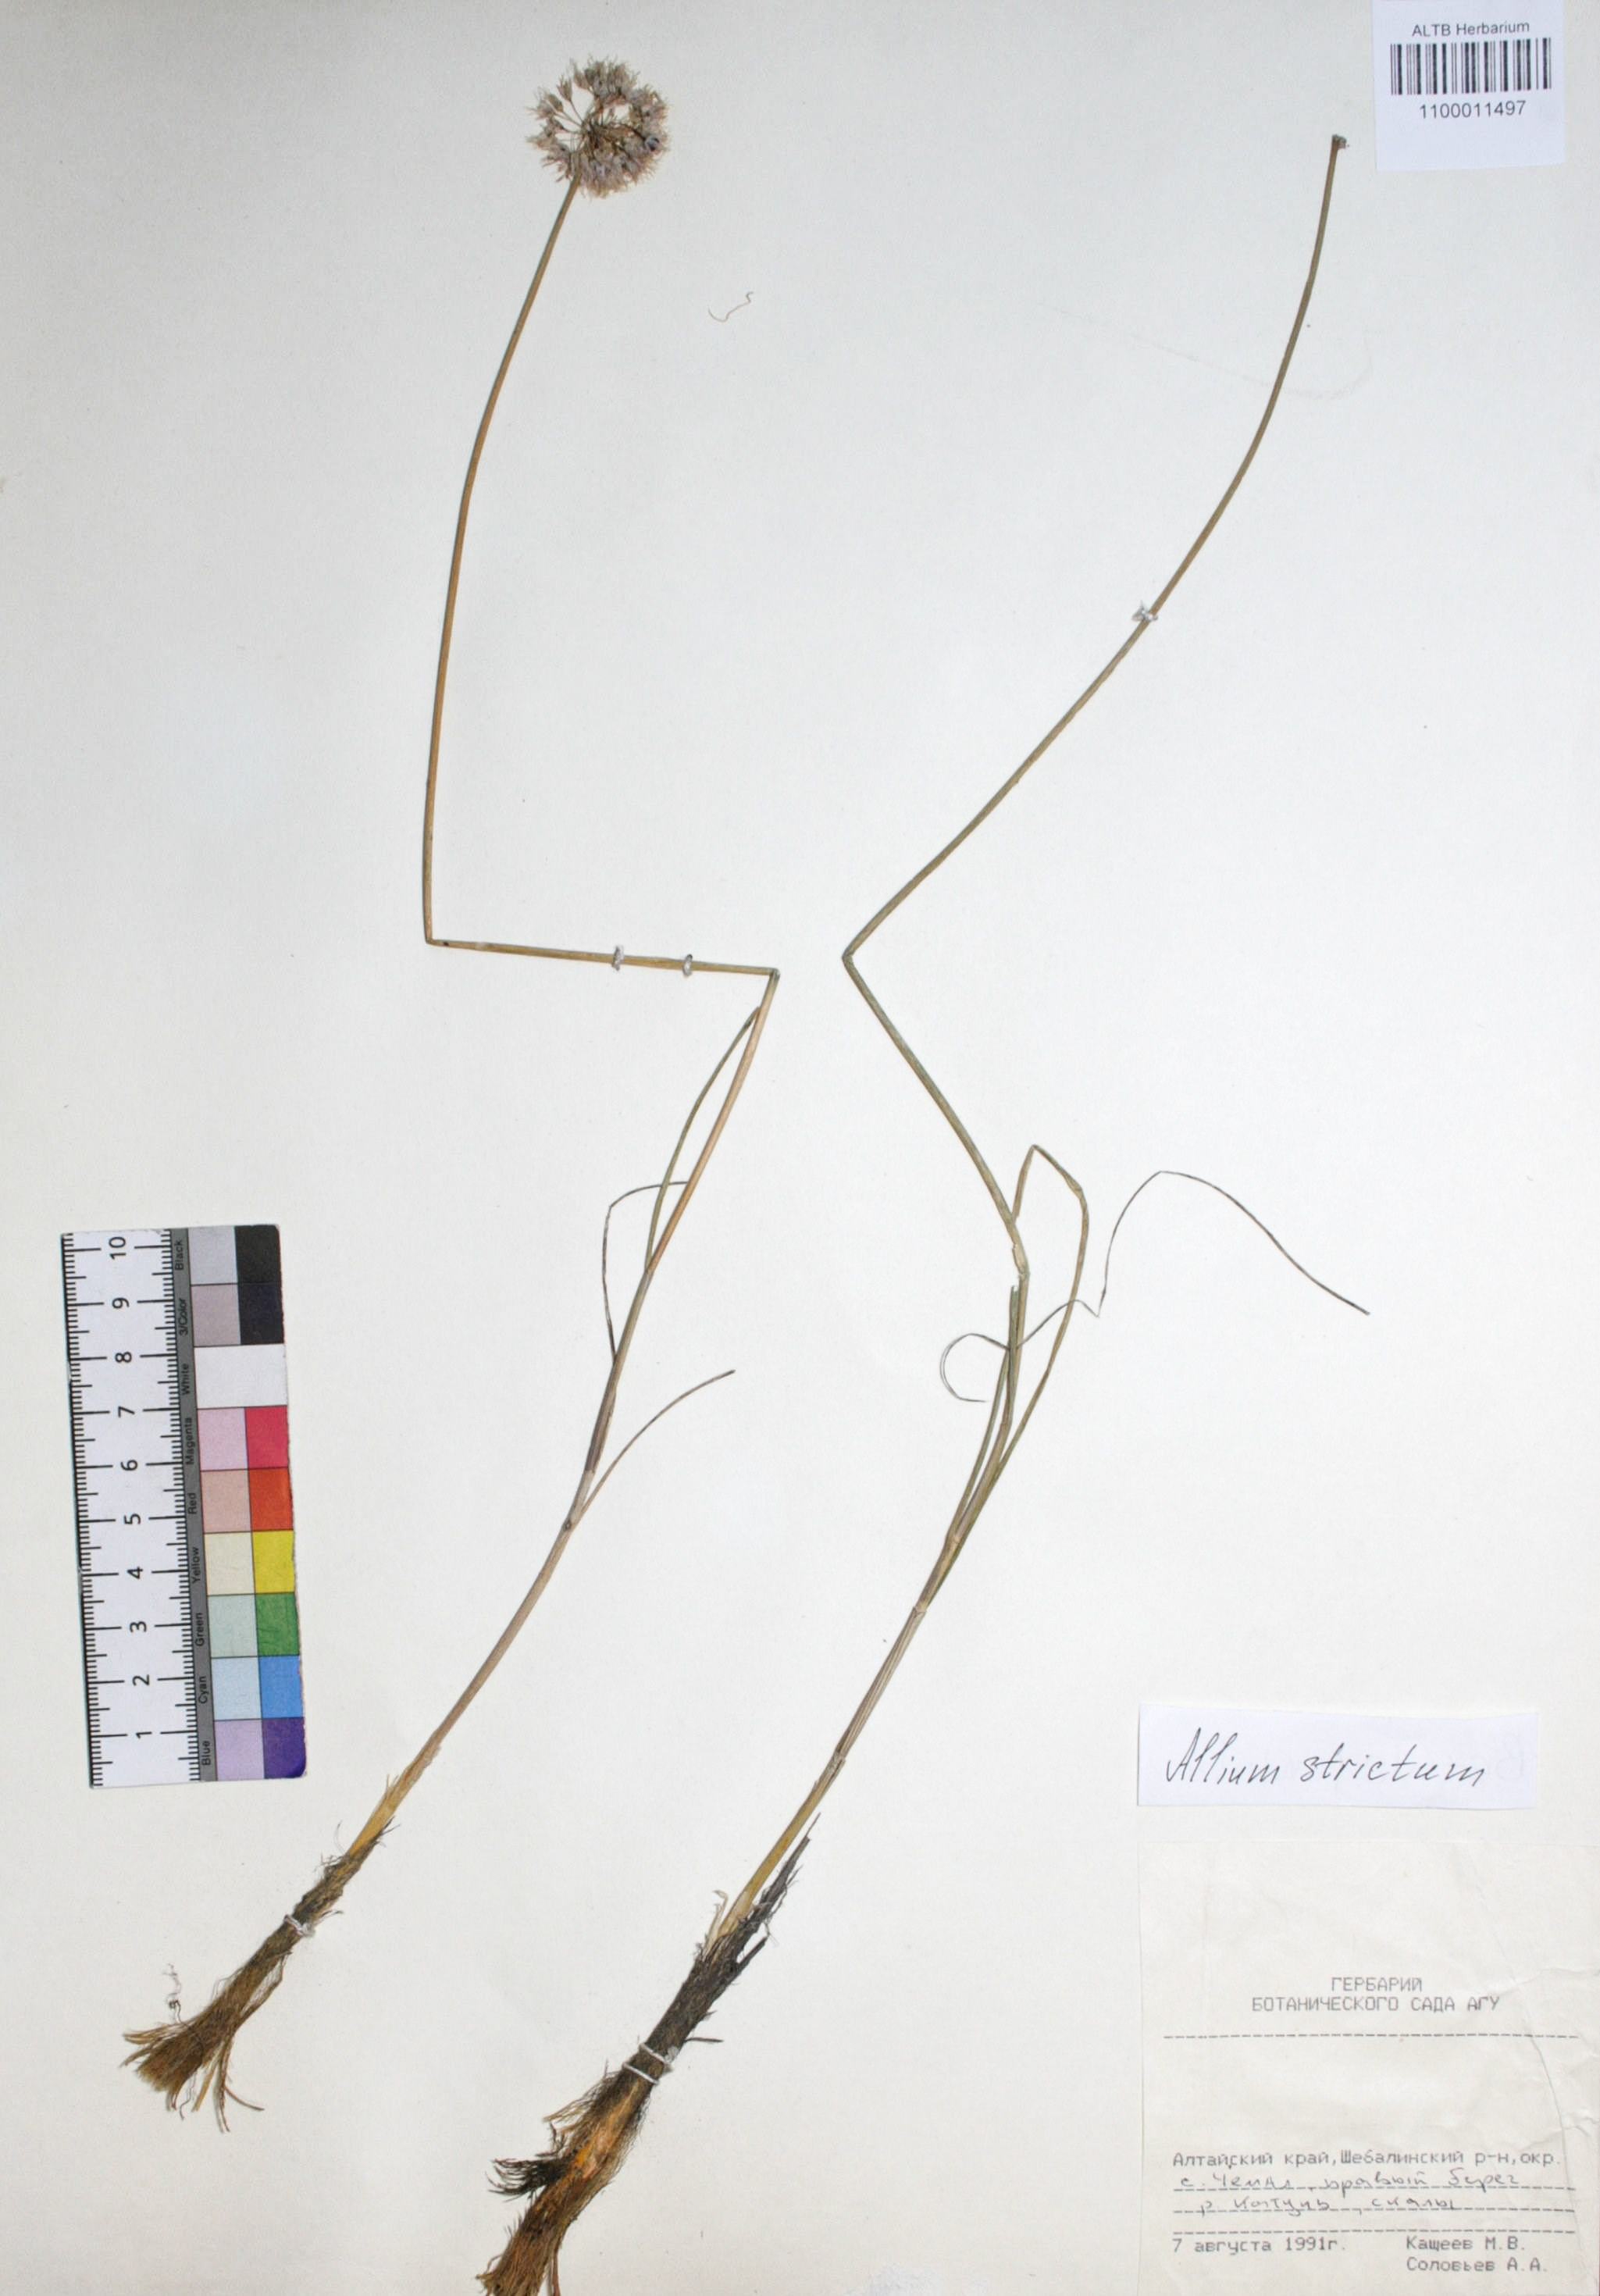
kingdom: Plantae
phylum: Tracheophyta
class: Liliopsida
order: Asparagales
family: Amaryllidaceae
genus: Allium
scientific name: Allium strictum
